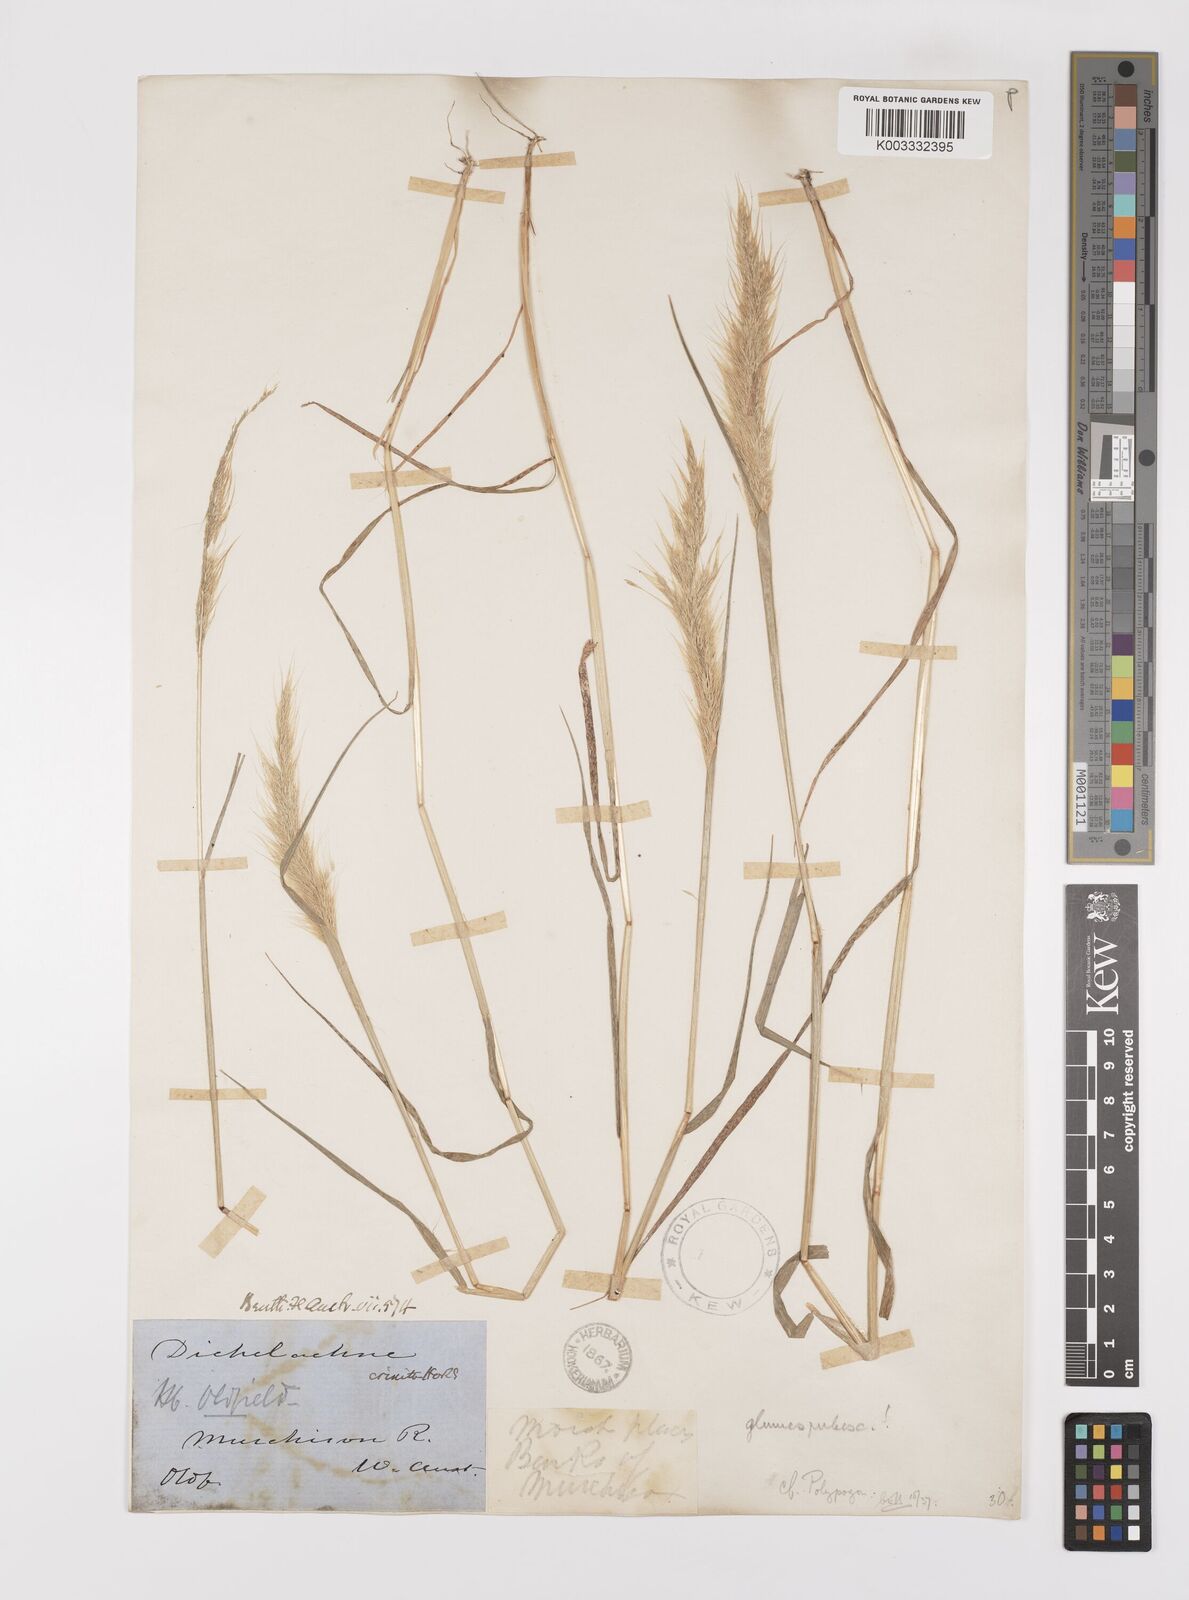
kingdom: Plantae
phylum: Tracheophyta
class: Liliopsida
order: Poales
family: Poaceae
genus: Polypogon
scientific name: Polypogon tenellus
